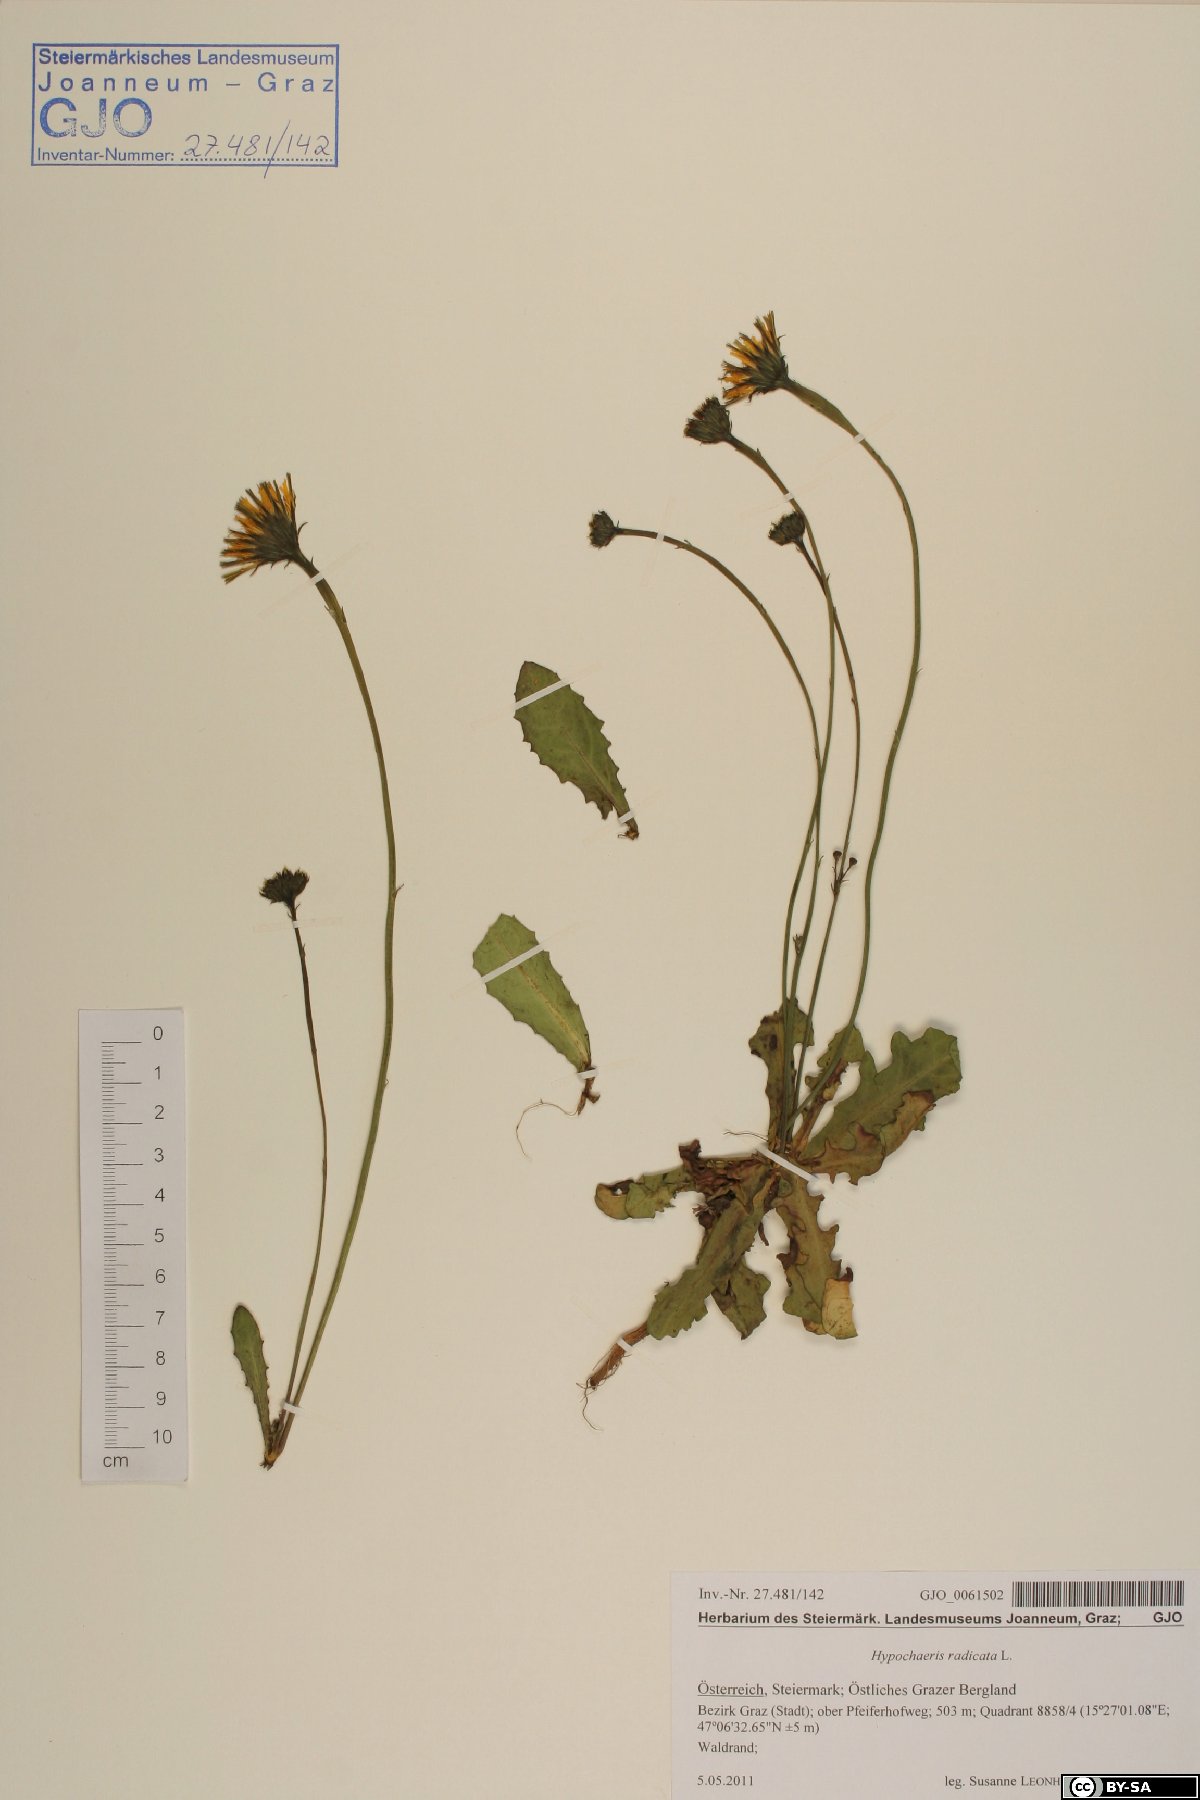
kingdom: Plantae
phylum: Tracheophyta
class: Magnoliopsida
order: Asterales
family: Asteraceae
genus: Hypochaeris
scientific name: Hypochaeris radicata
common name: Flatweed
